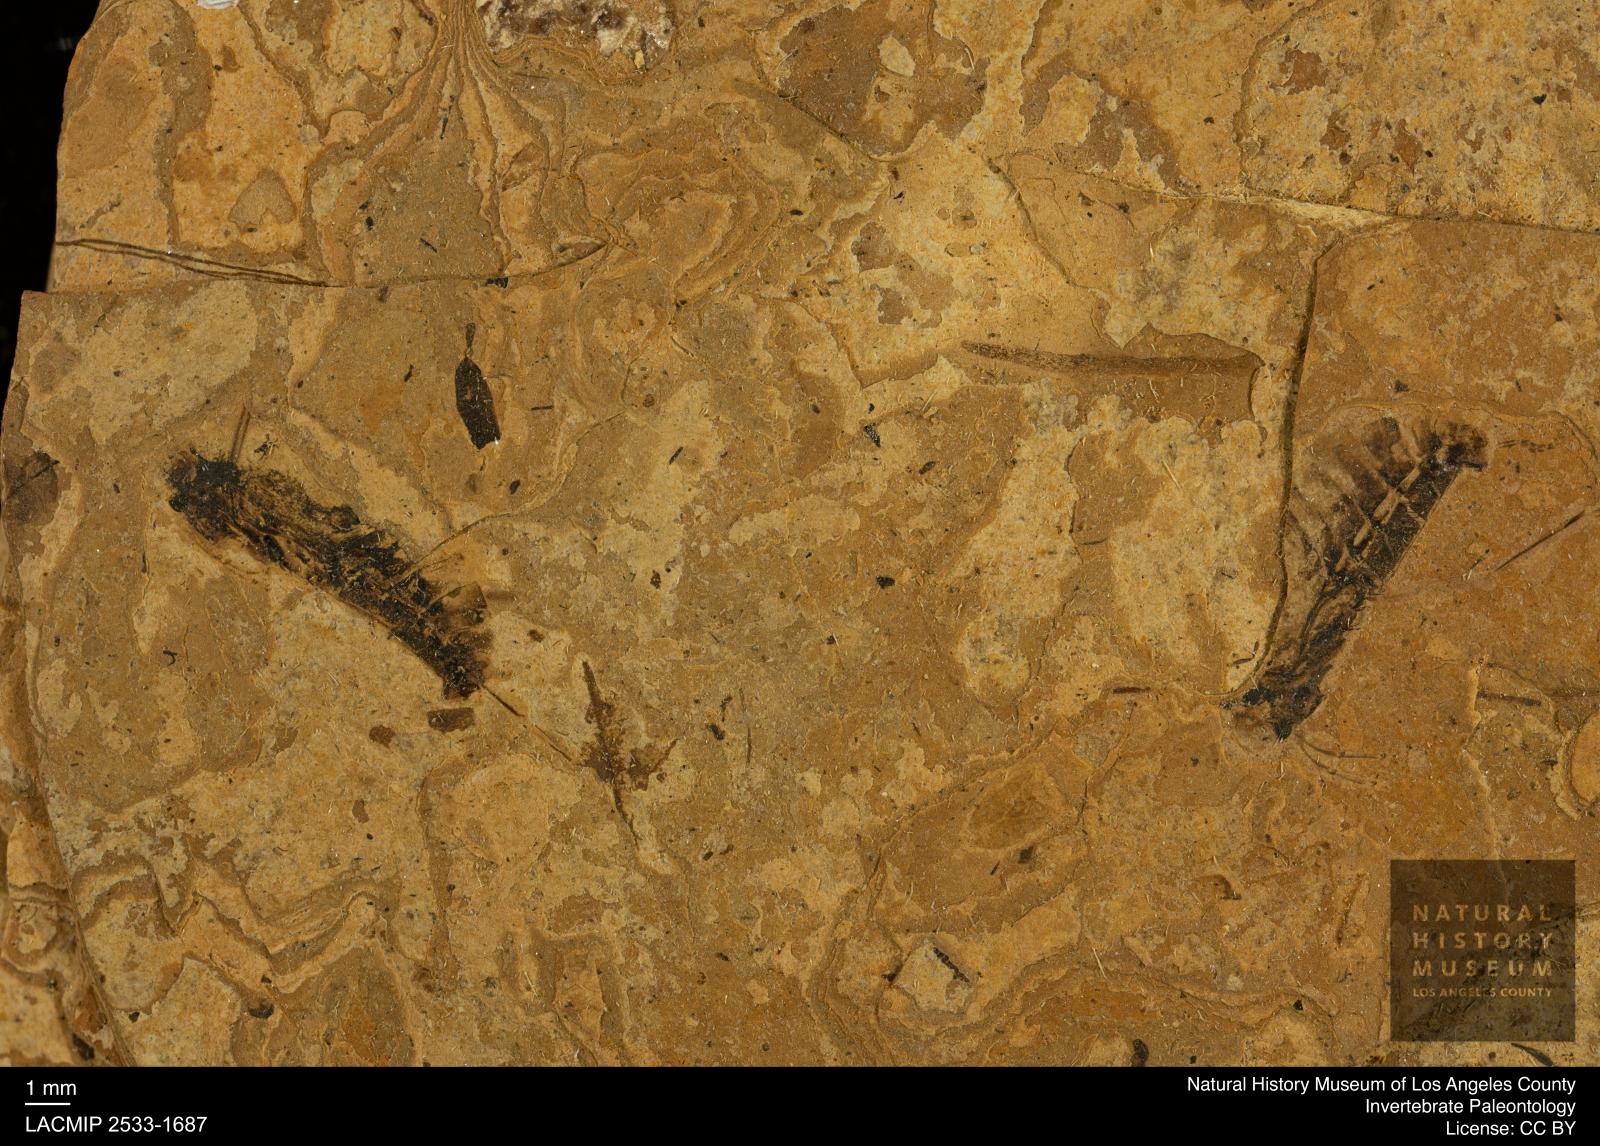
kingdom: Animalia
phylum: Arthropoda
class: Insecta
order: Hemiptera
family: Notonectidae
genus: Notonecta
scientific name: Notonecta
